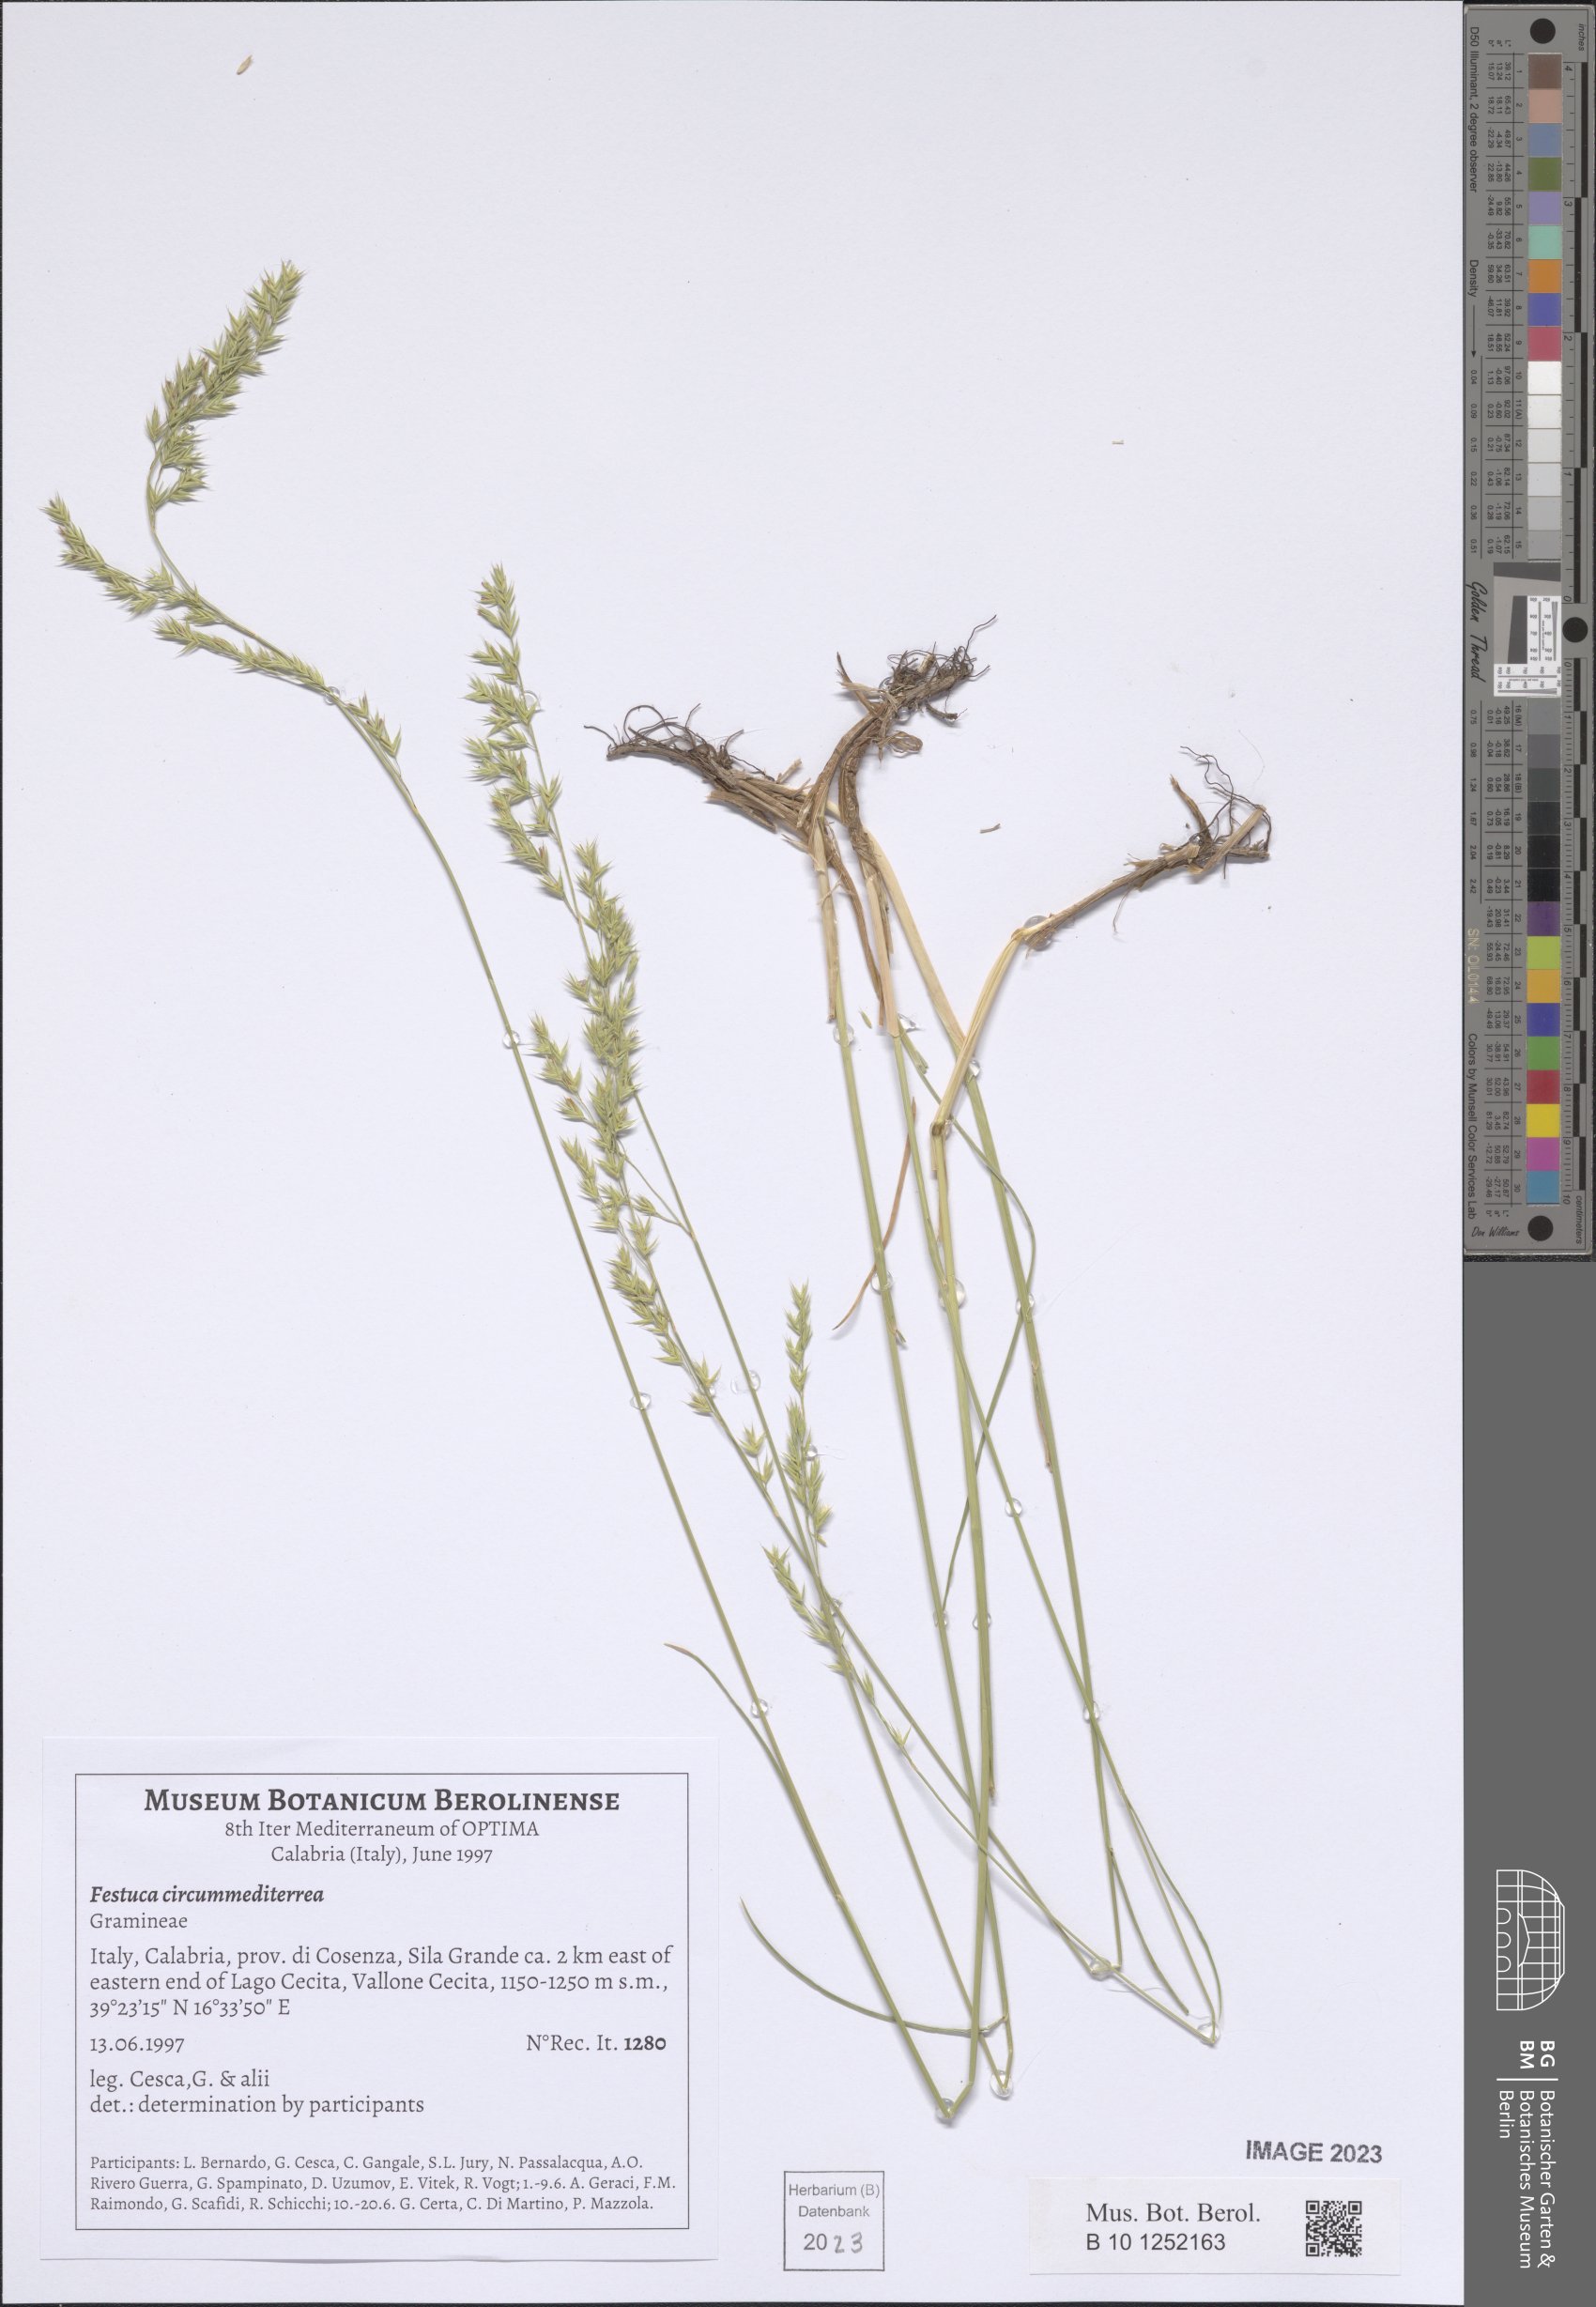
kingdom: Plantae
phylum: Tracheophyta
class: Liliopsida
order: Poales
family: Poaceae
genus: Festuca
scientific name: Festuca circummediterranea
